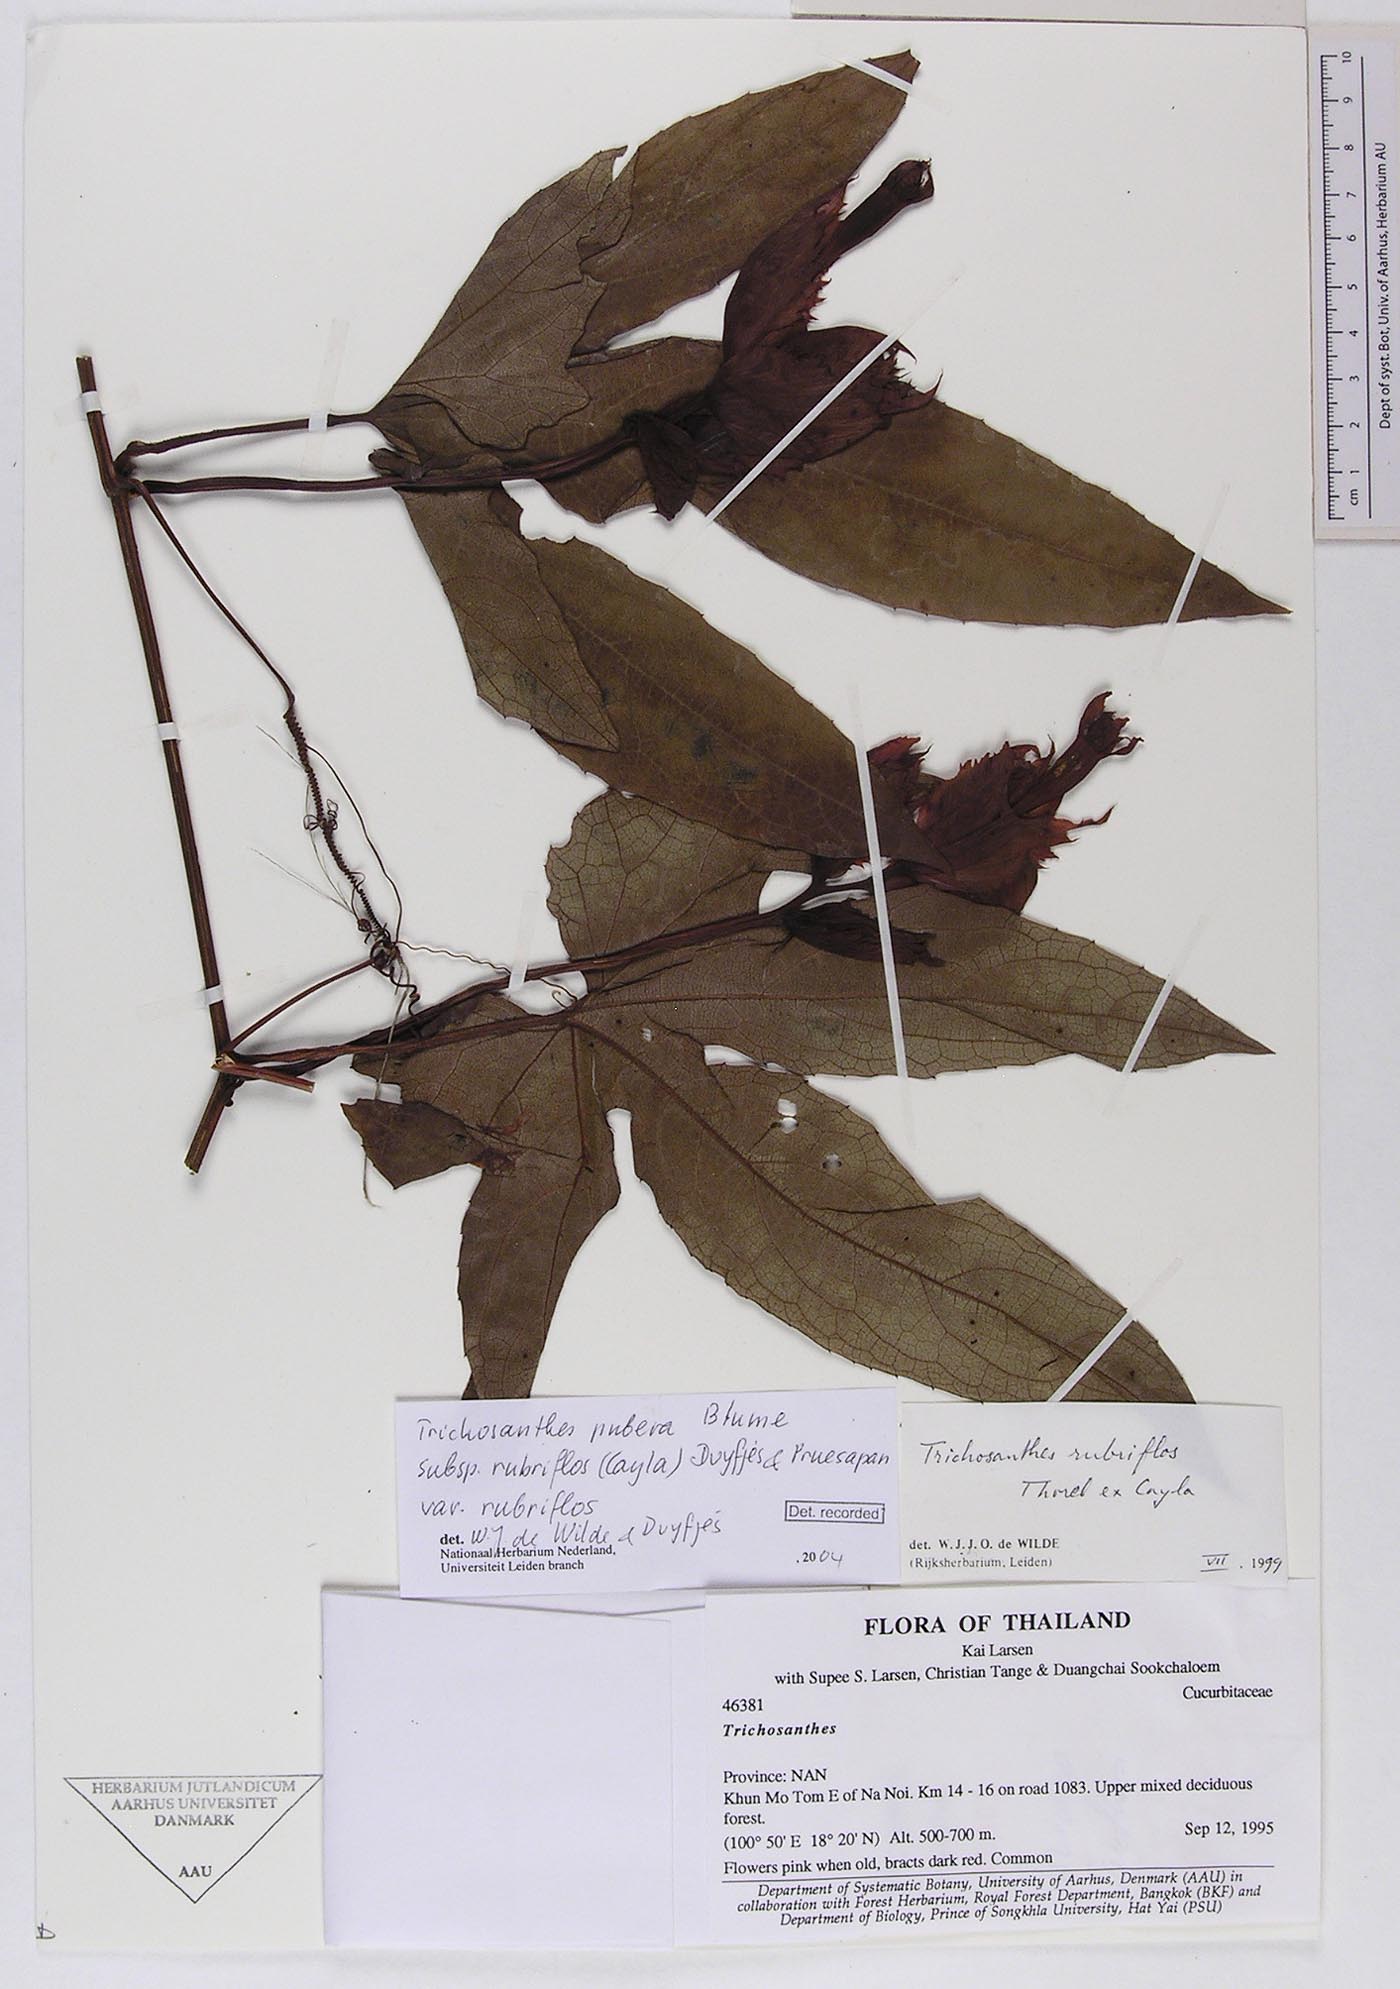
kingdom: Plantae
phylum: Tracheophyta
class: Magnoliopsida
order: Cucurbitales
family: Cucurbitaceae
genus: Trichosanthes
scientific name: Trichosanthes rubriflos
